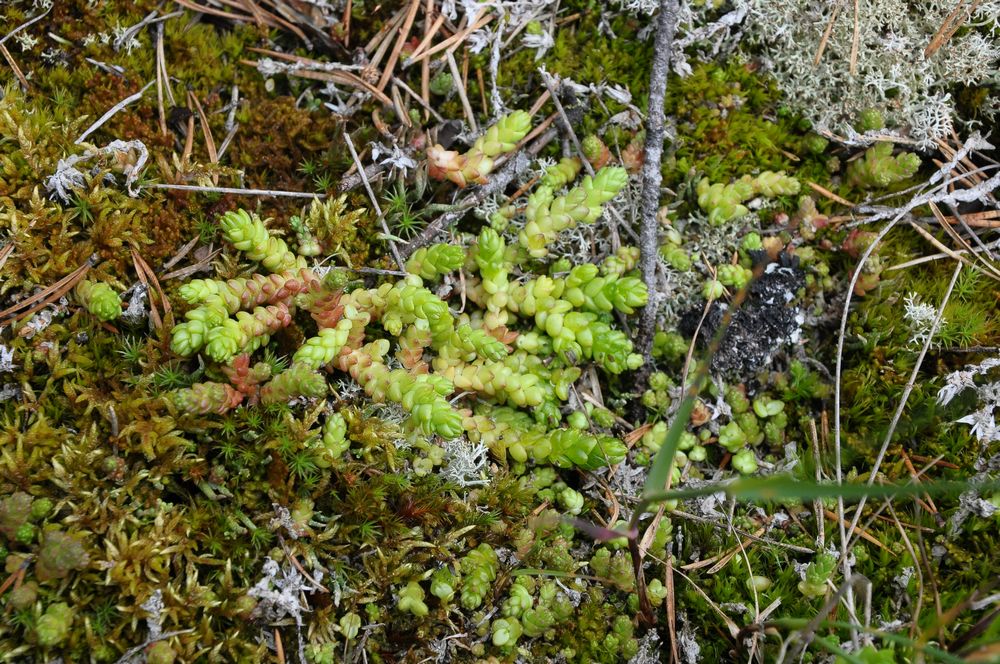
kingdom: Plantae
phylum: Tracheophyta
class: Magnoliopsida
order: Saxifragales
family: Crassulaceae
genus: Sedum
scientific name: Sedum acre
